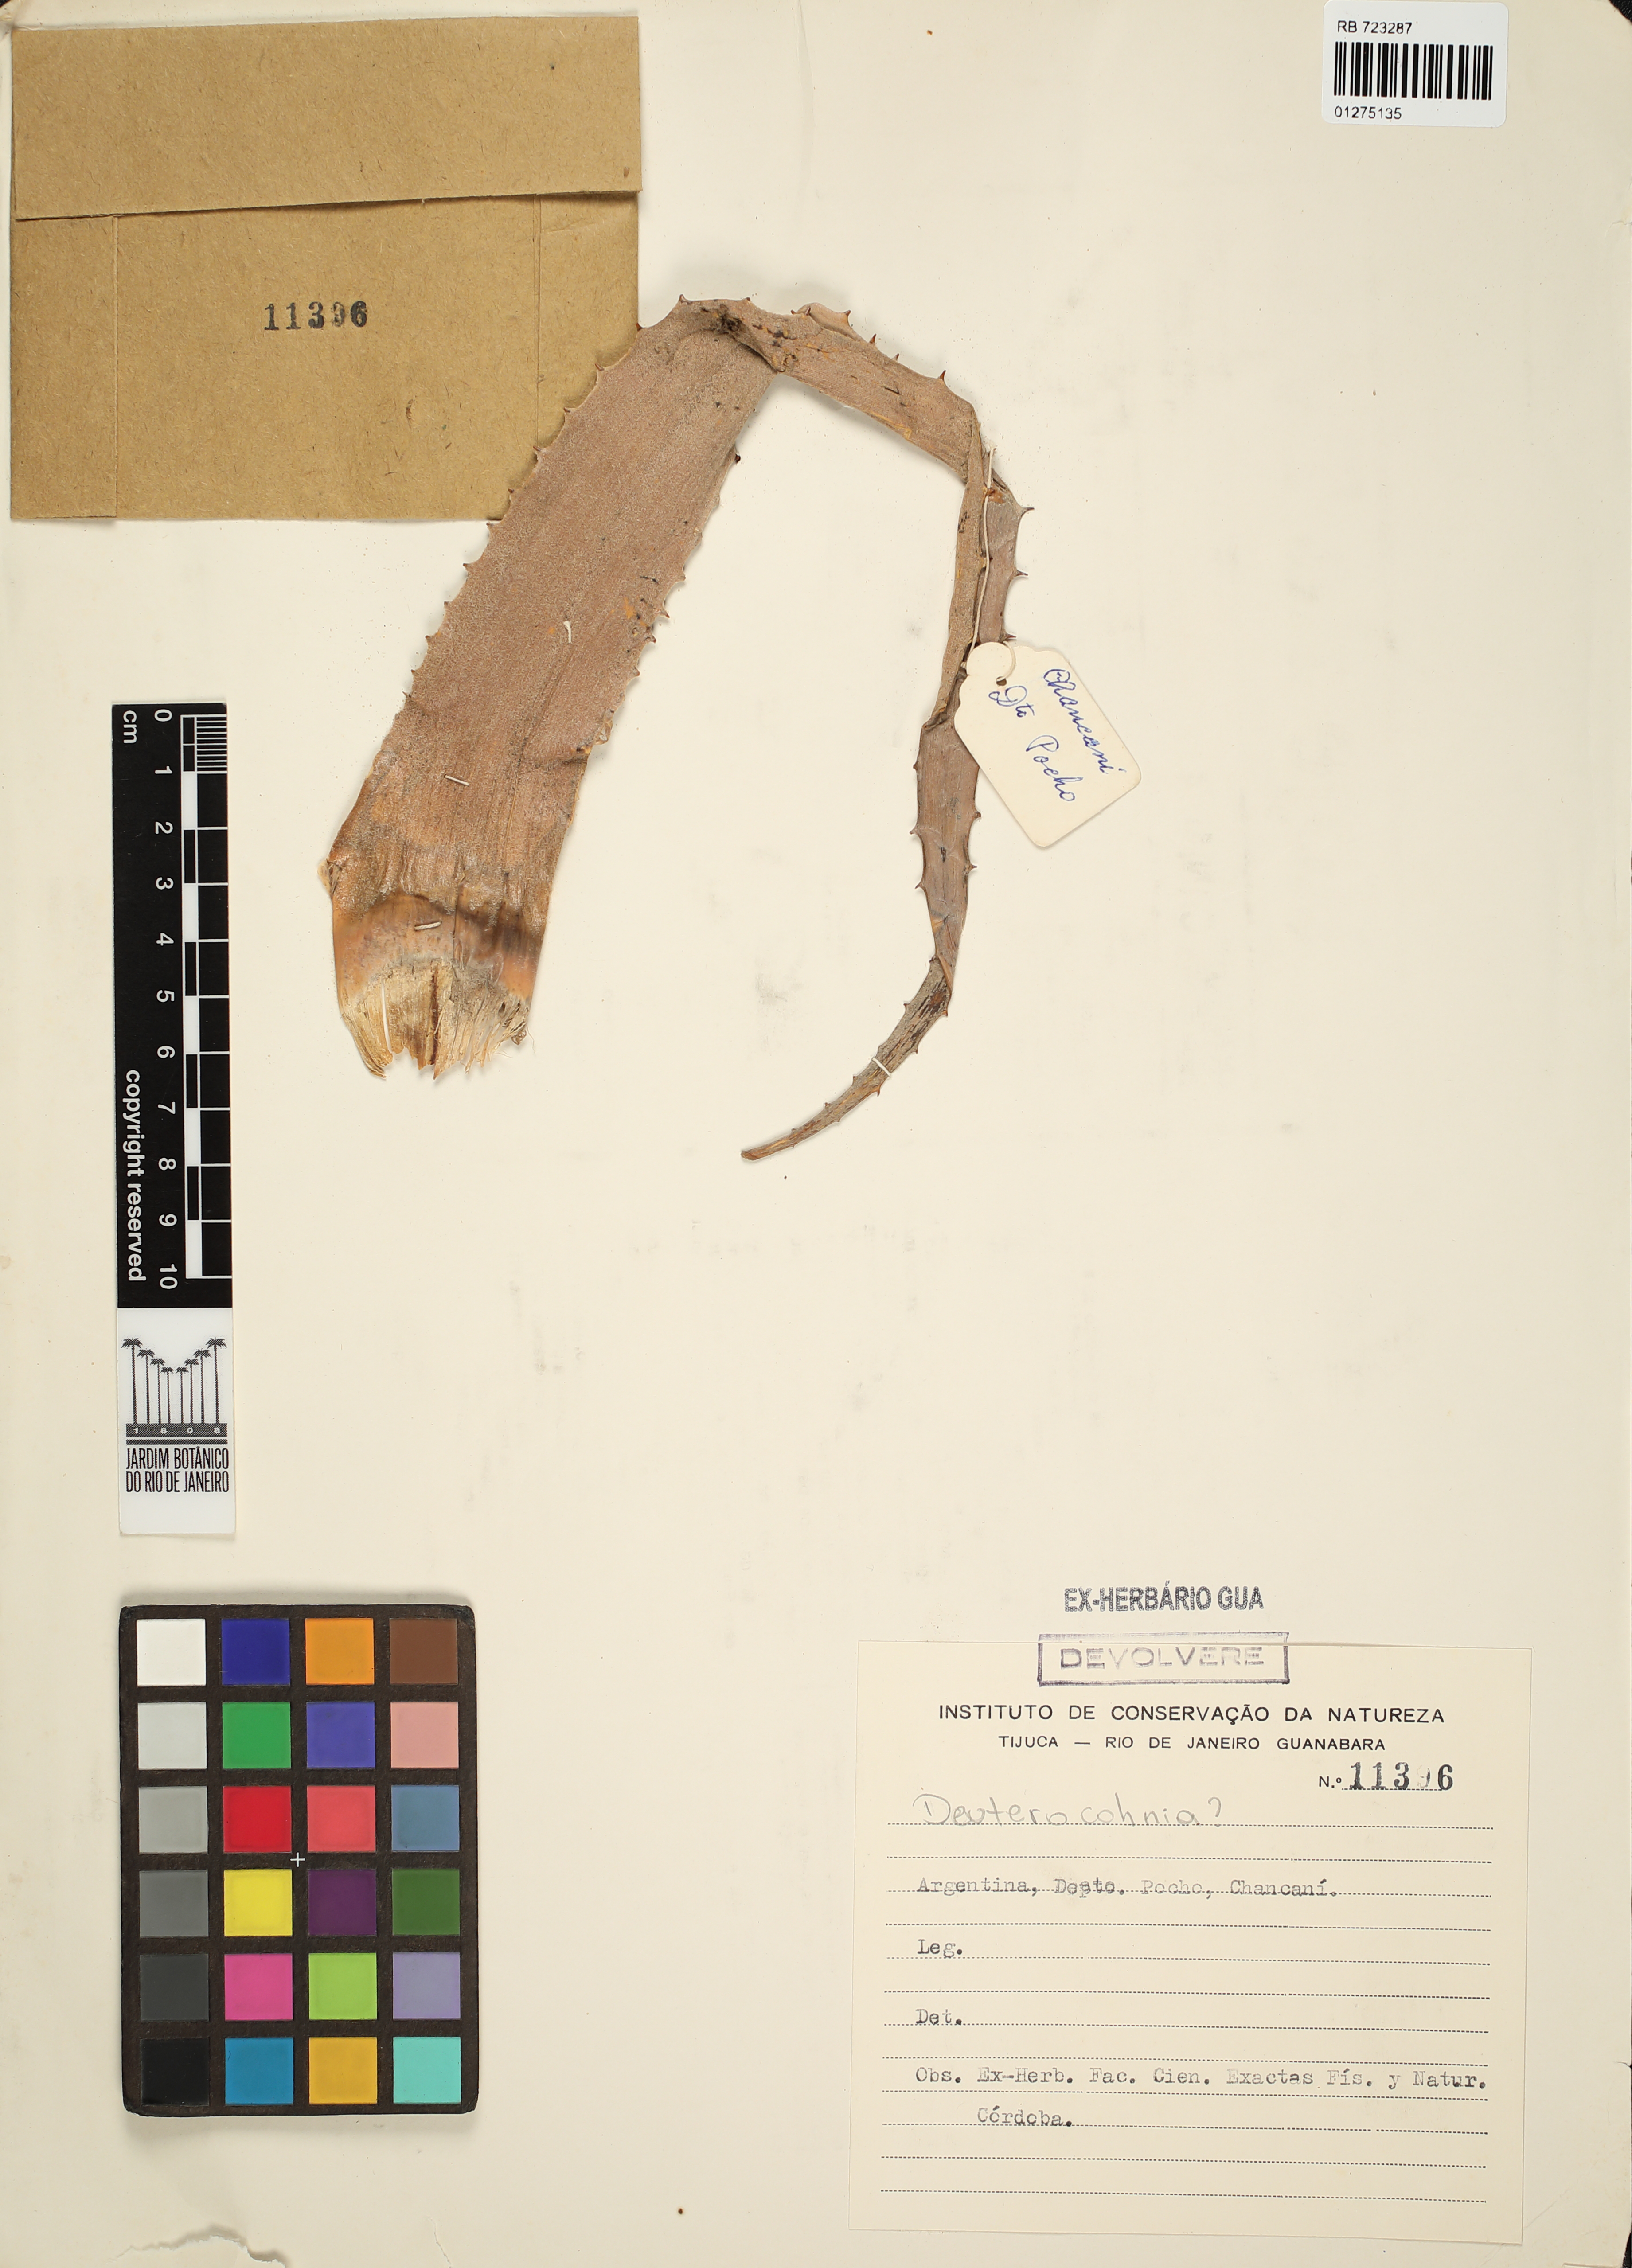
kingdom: Plantae
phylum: Tracheophyta
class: Liliopsida
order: Poales
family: Bromeliaceae
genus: Deuterocohnia
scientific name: Deuterocohnia
